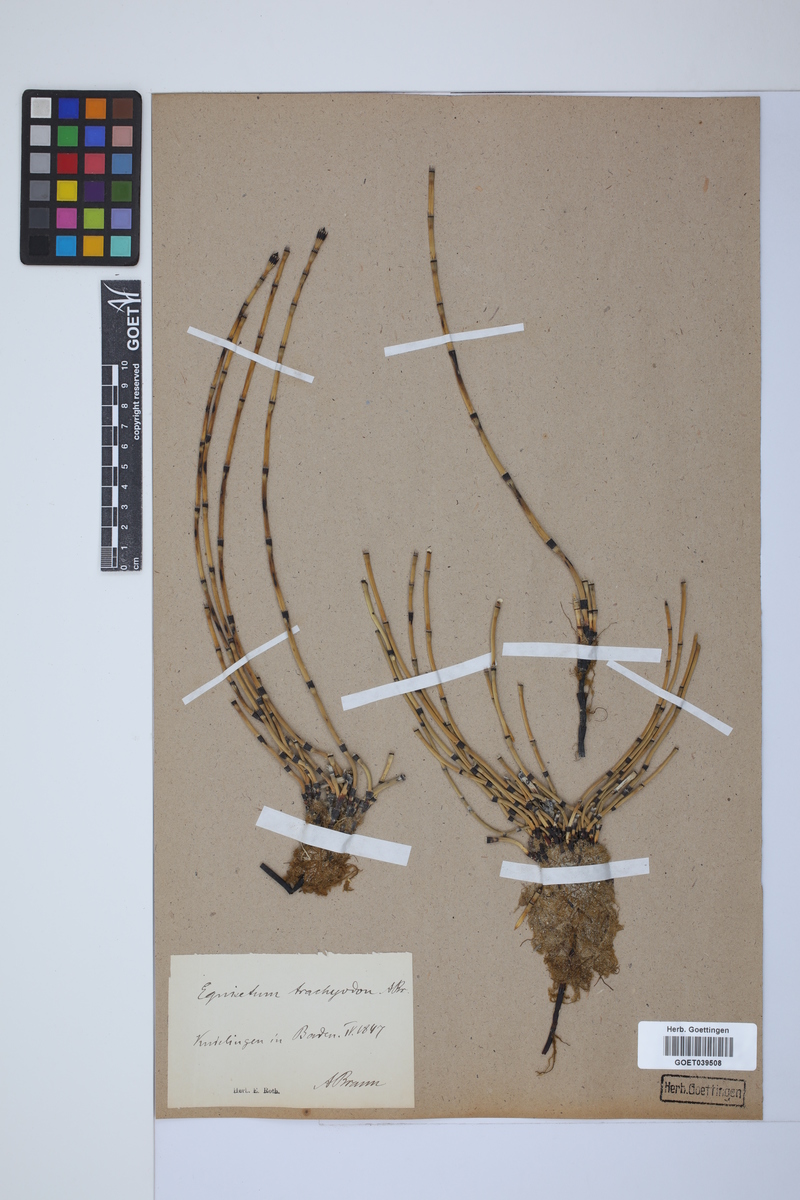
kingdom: Plantae
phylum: Tracheophyta
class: Polypodiopsida
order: Equisetales
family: Equisetaceae
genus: Equisetum
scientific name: Equisetum trachyodon
